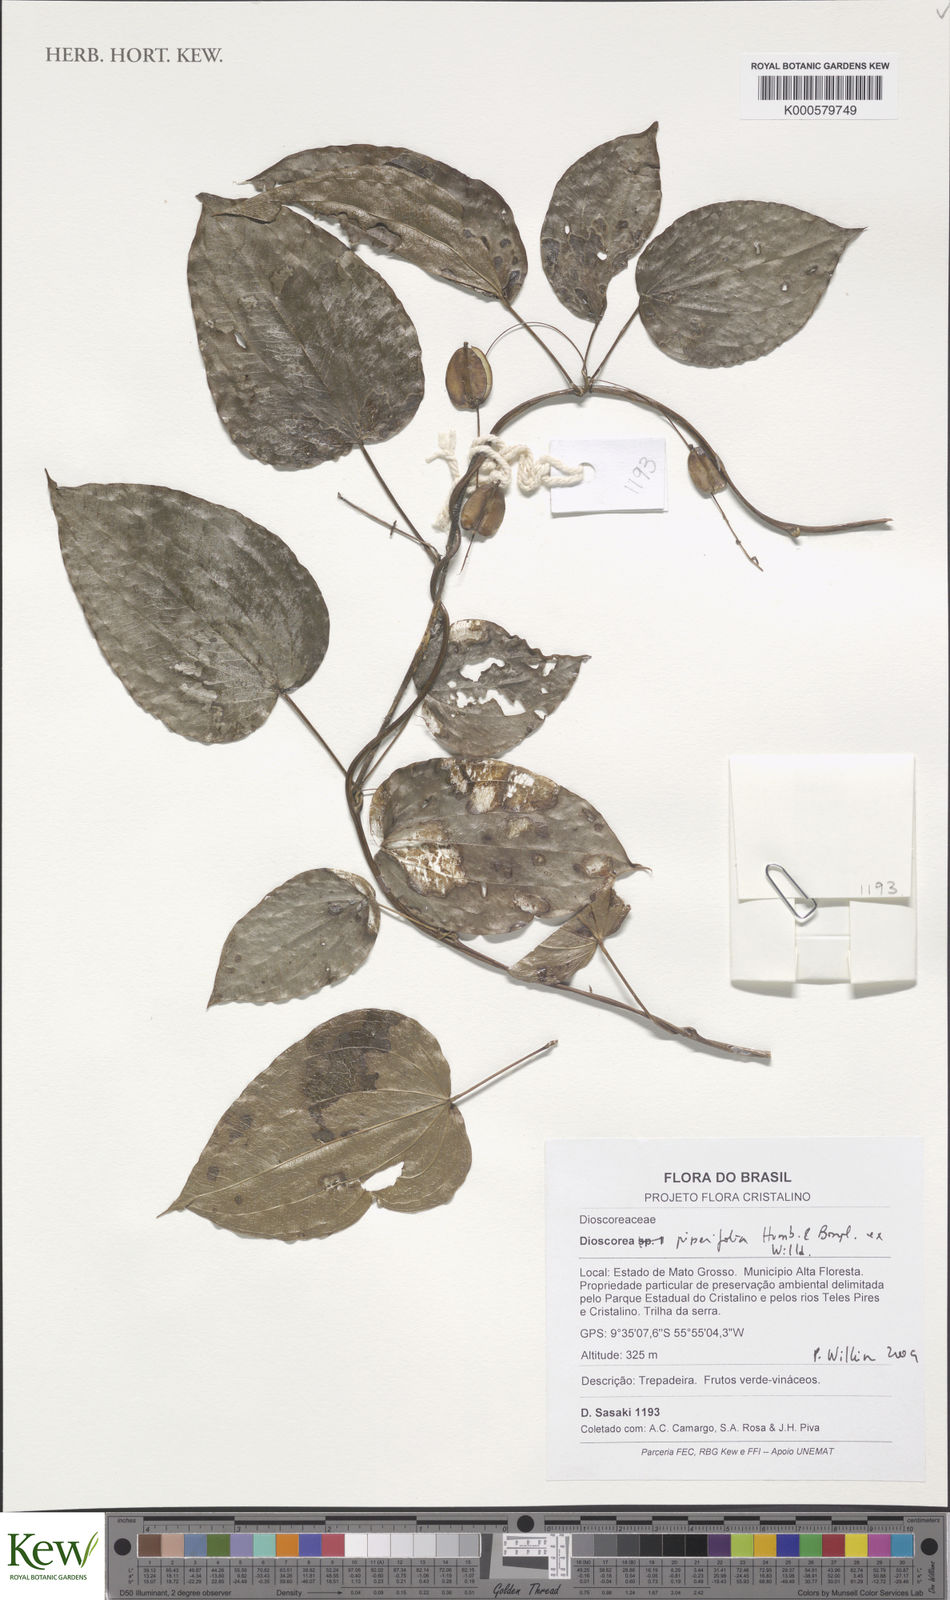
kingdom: Plantae
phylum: Tracheophyta
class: Liliopsida
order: Dioscoreales
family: Dioscoreaceae
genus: Dioscorea
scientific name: Dioscorea piperifolia
